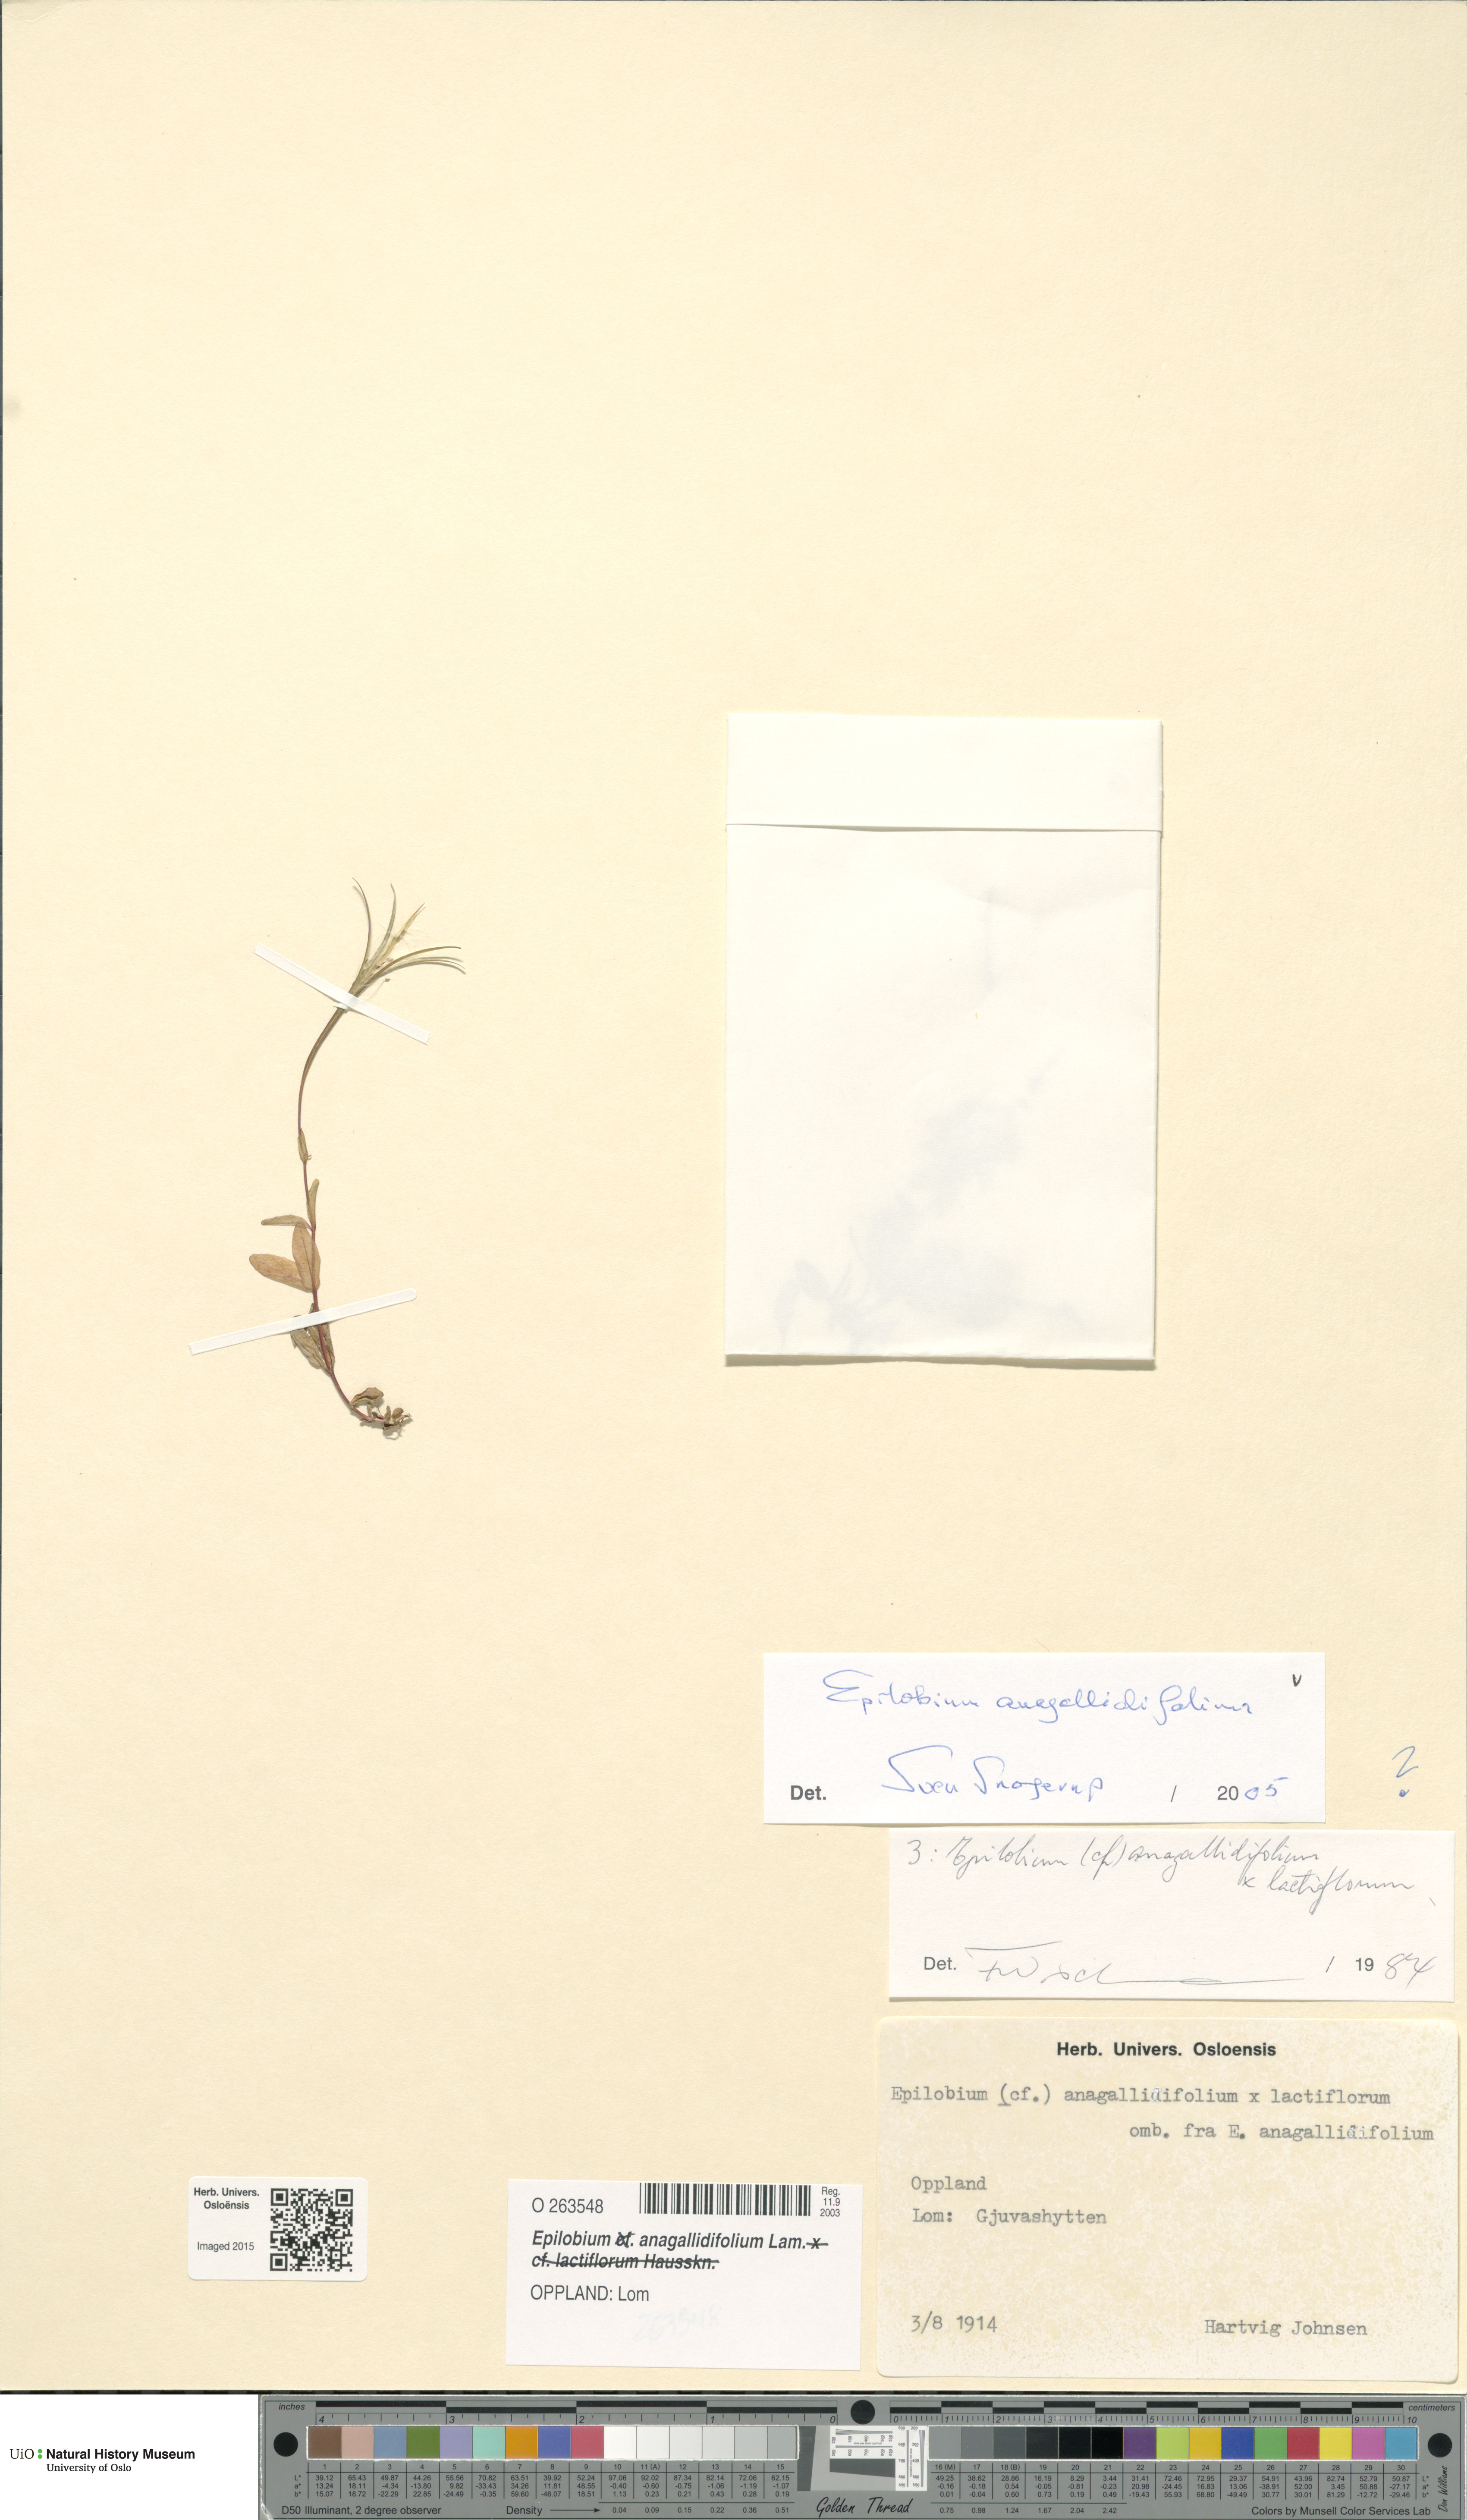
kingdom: Plantae
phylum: Tracheophyta
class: Magnoliopsida
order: Myrtales
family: Onagraceae
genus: Epilobium
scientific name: Epilobium anagallidifolium
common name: Alpine willowherb
